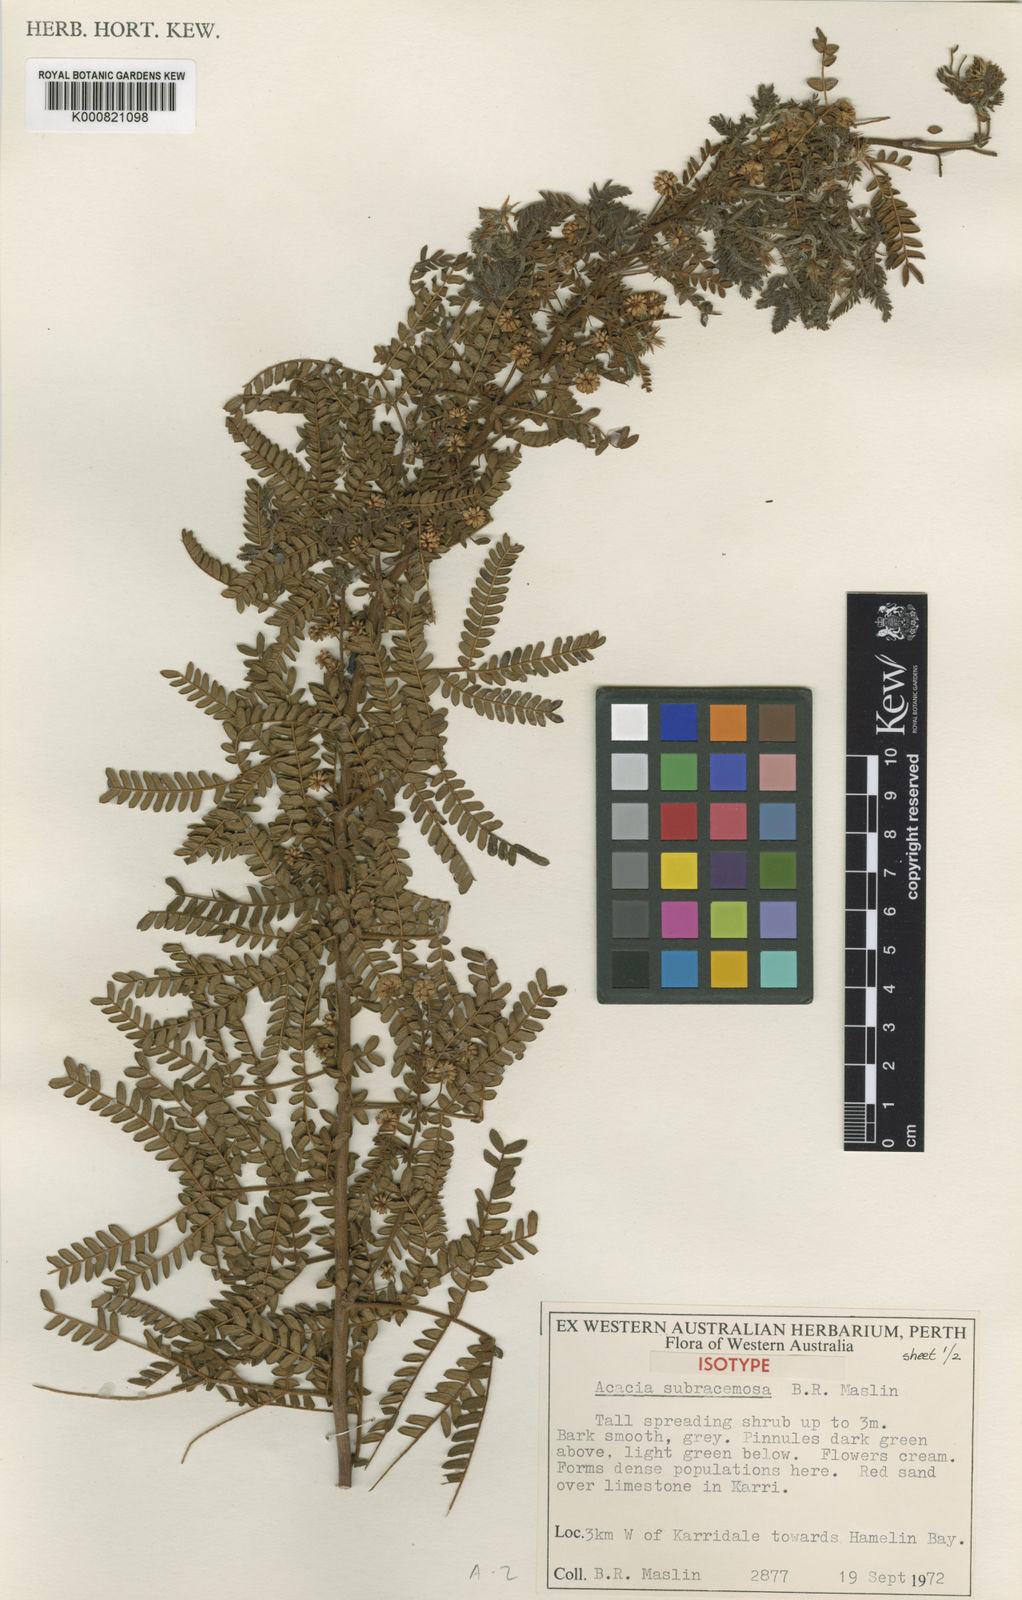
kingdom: Plantae
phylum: Tracheophyta
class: Magnoliopsida
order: Fabales
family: Fabaceae
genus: Acacia
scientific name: Acacia subracemosa
